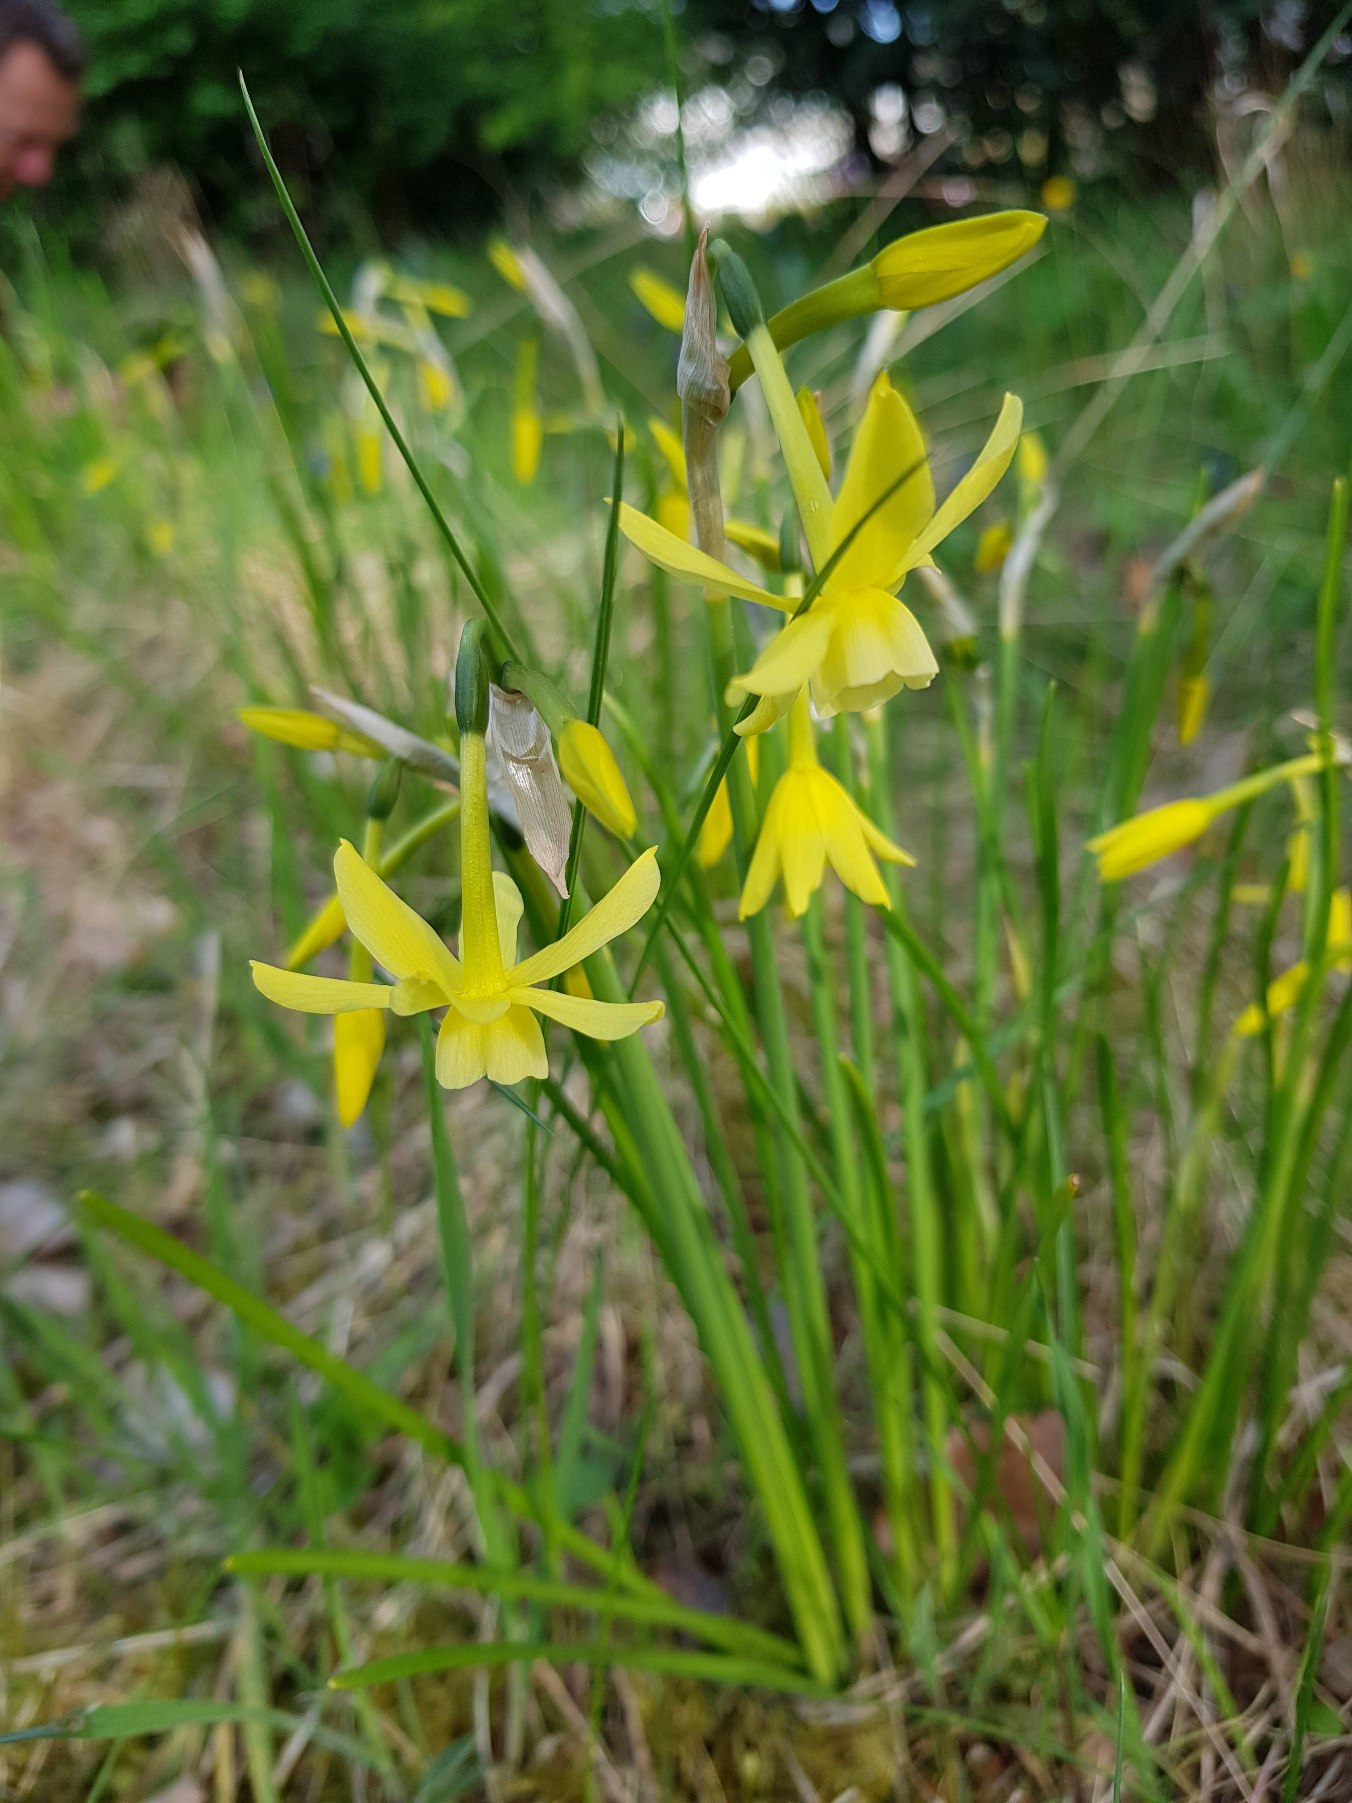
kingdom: Plantae
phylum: Tracheophyta
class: Liliopsida
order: Asparagales
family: Amaryllidaceae
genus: Narcissus
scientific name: Narcissus jonquilla
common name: Siv-narcis
